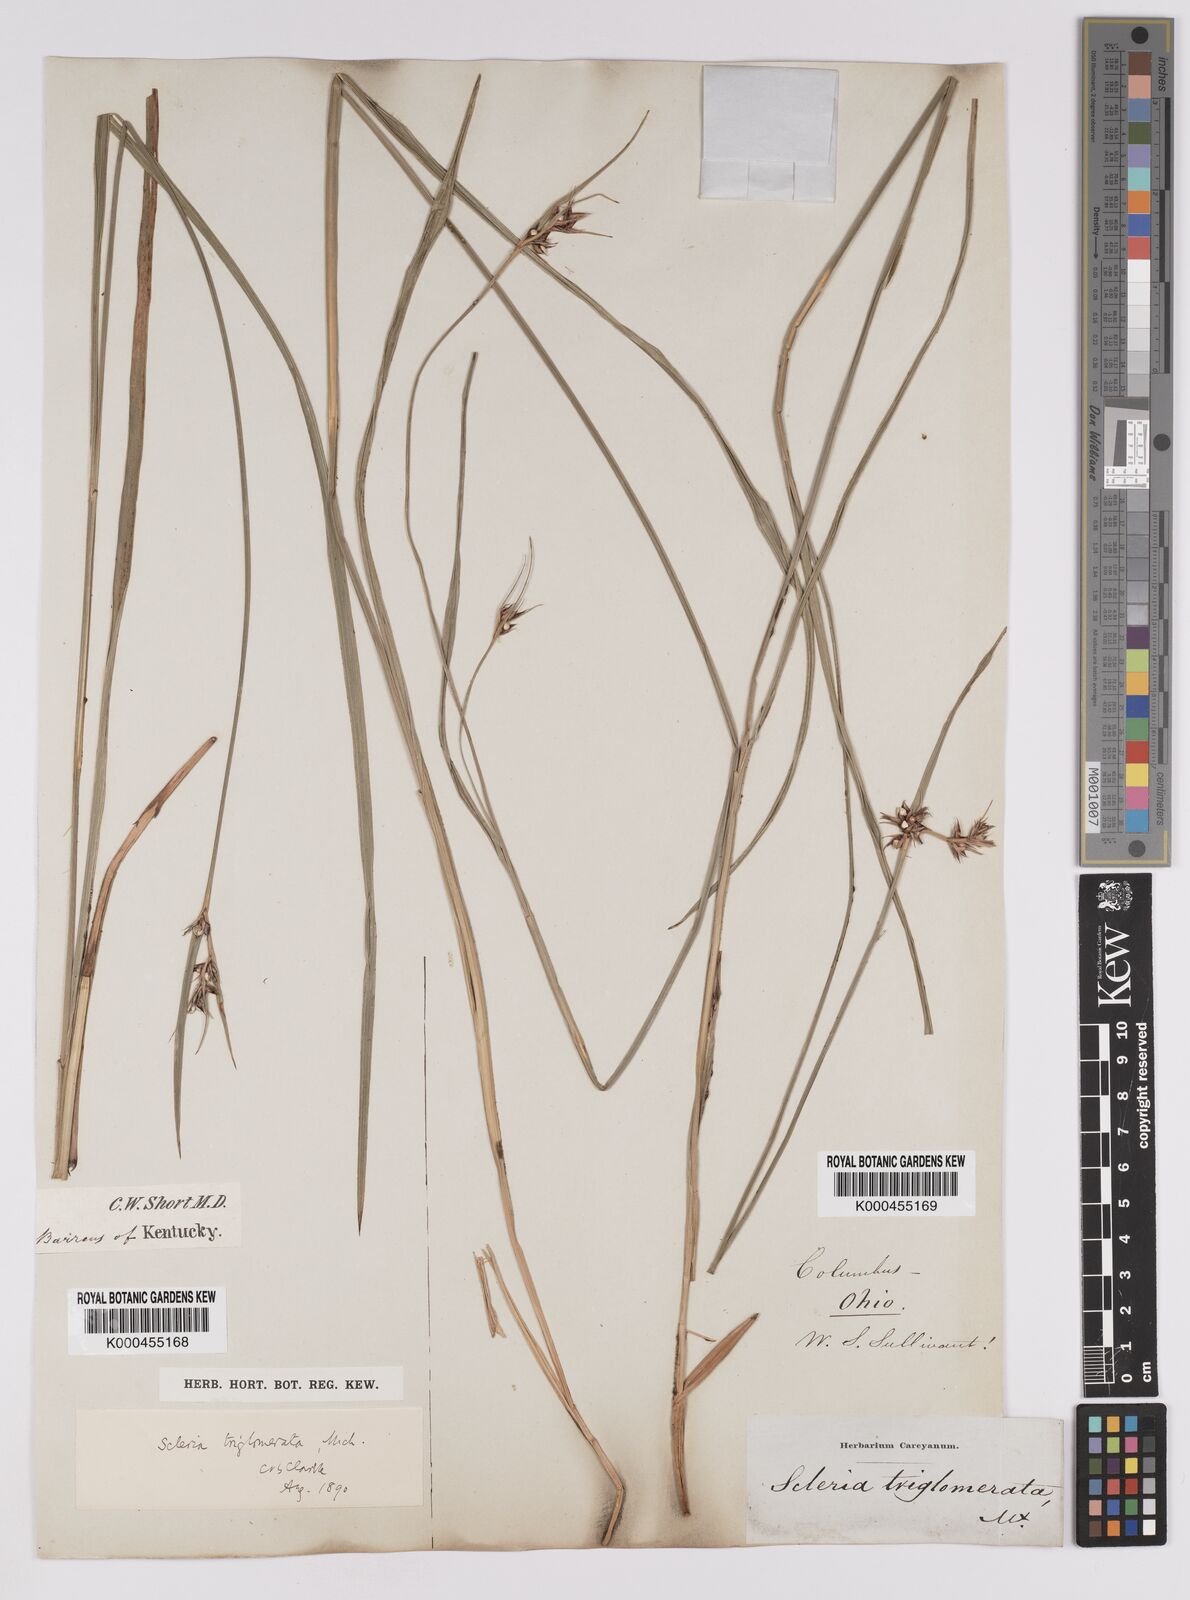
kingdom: Plantae
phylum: Tracheophyta
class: Liliopsida
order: Poales
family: Cyperaceae
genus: Scleria
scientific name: Scleria triglomerata
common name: Whip nutrush
